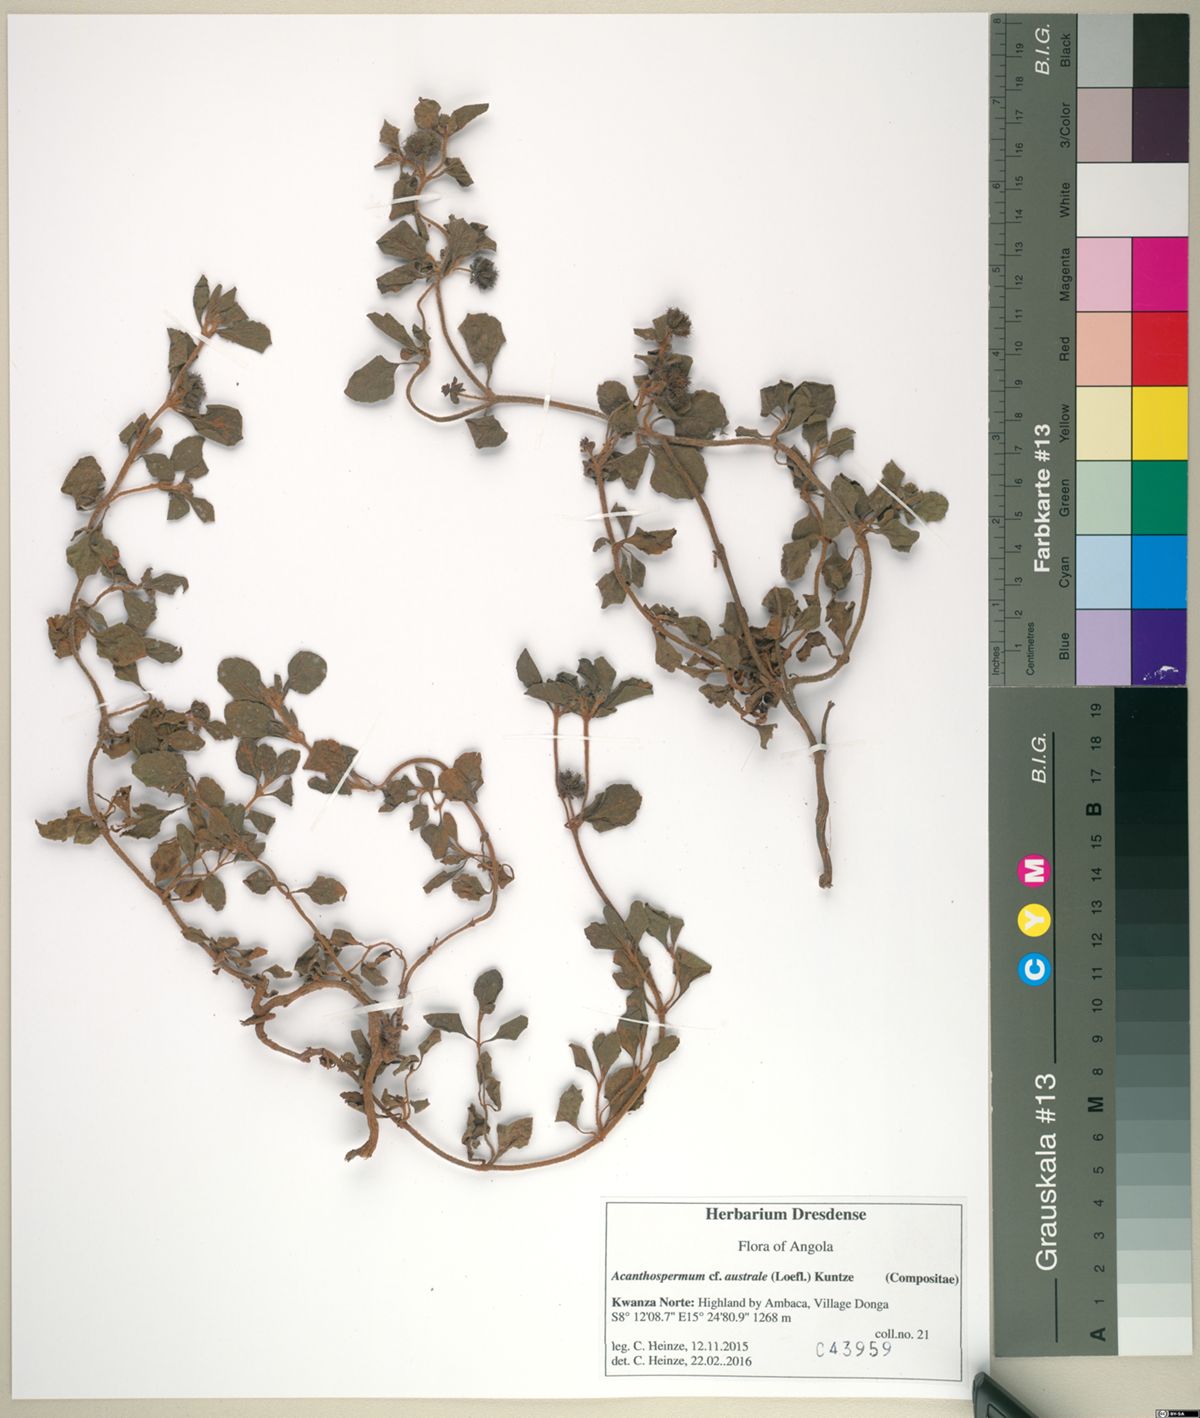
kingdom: Plantae
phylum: Tracheophyta
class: Magnoliopsida
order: Asterales
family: Asteraceae
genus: Acanthospermum
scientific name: Acanthospermum australe
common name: Paraguayan starbur
